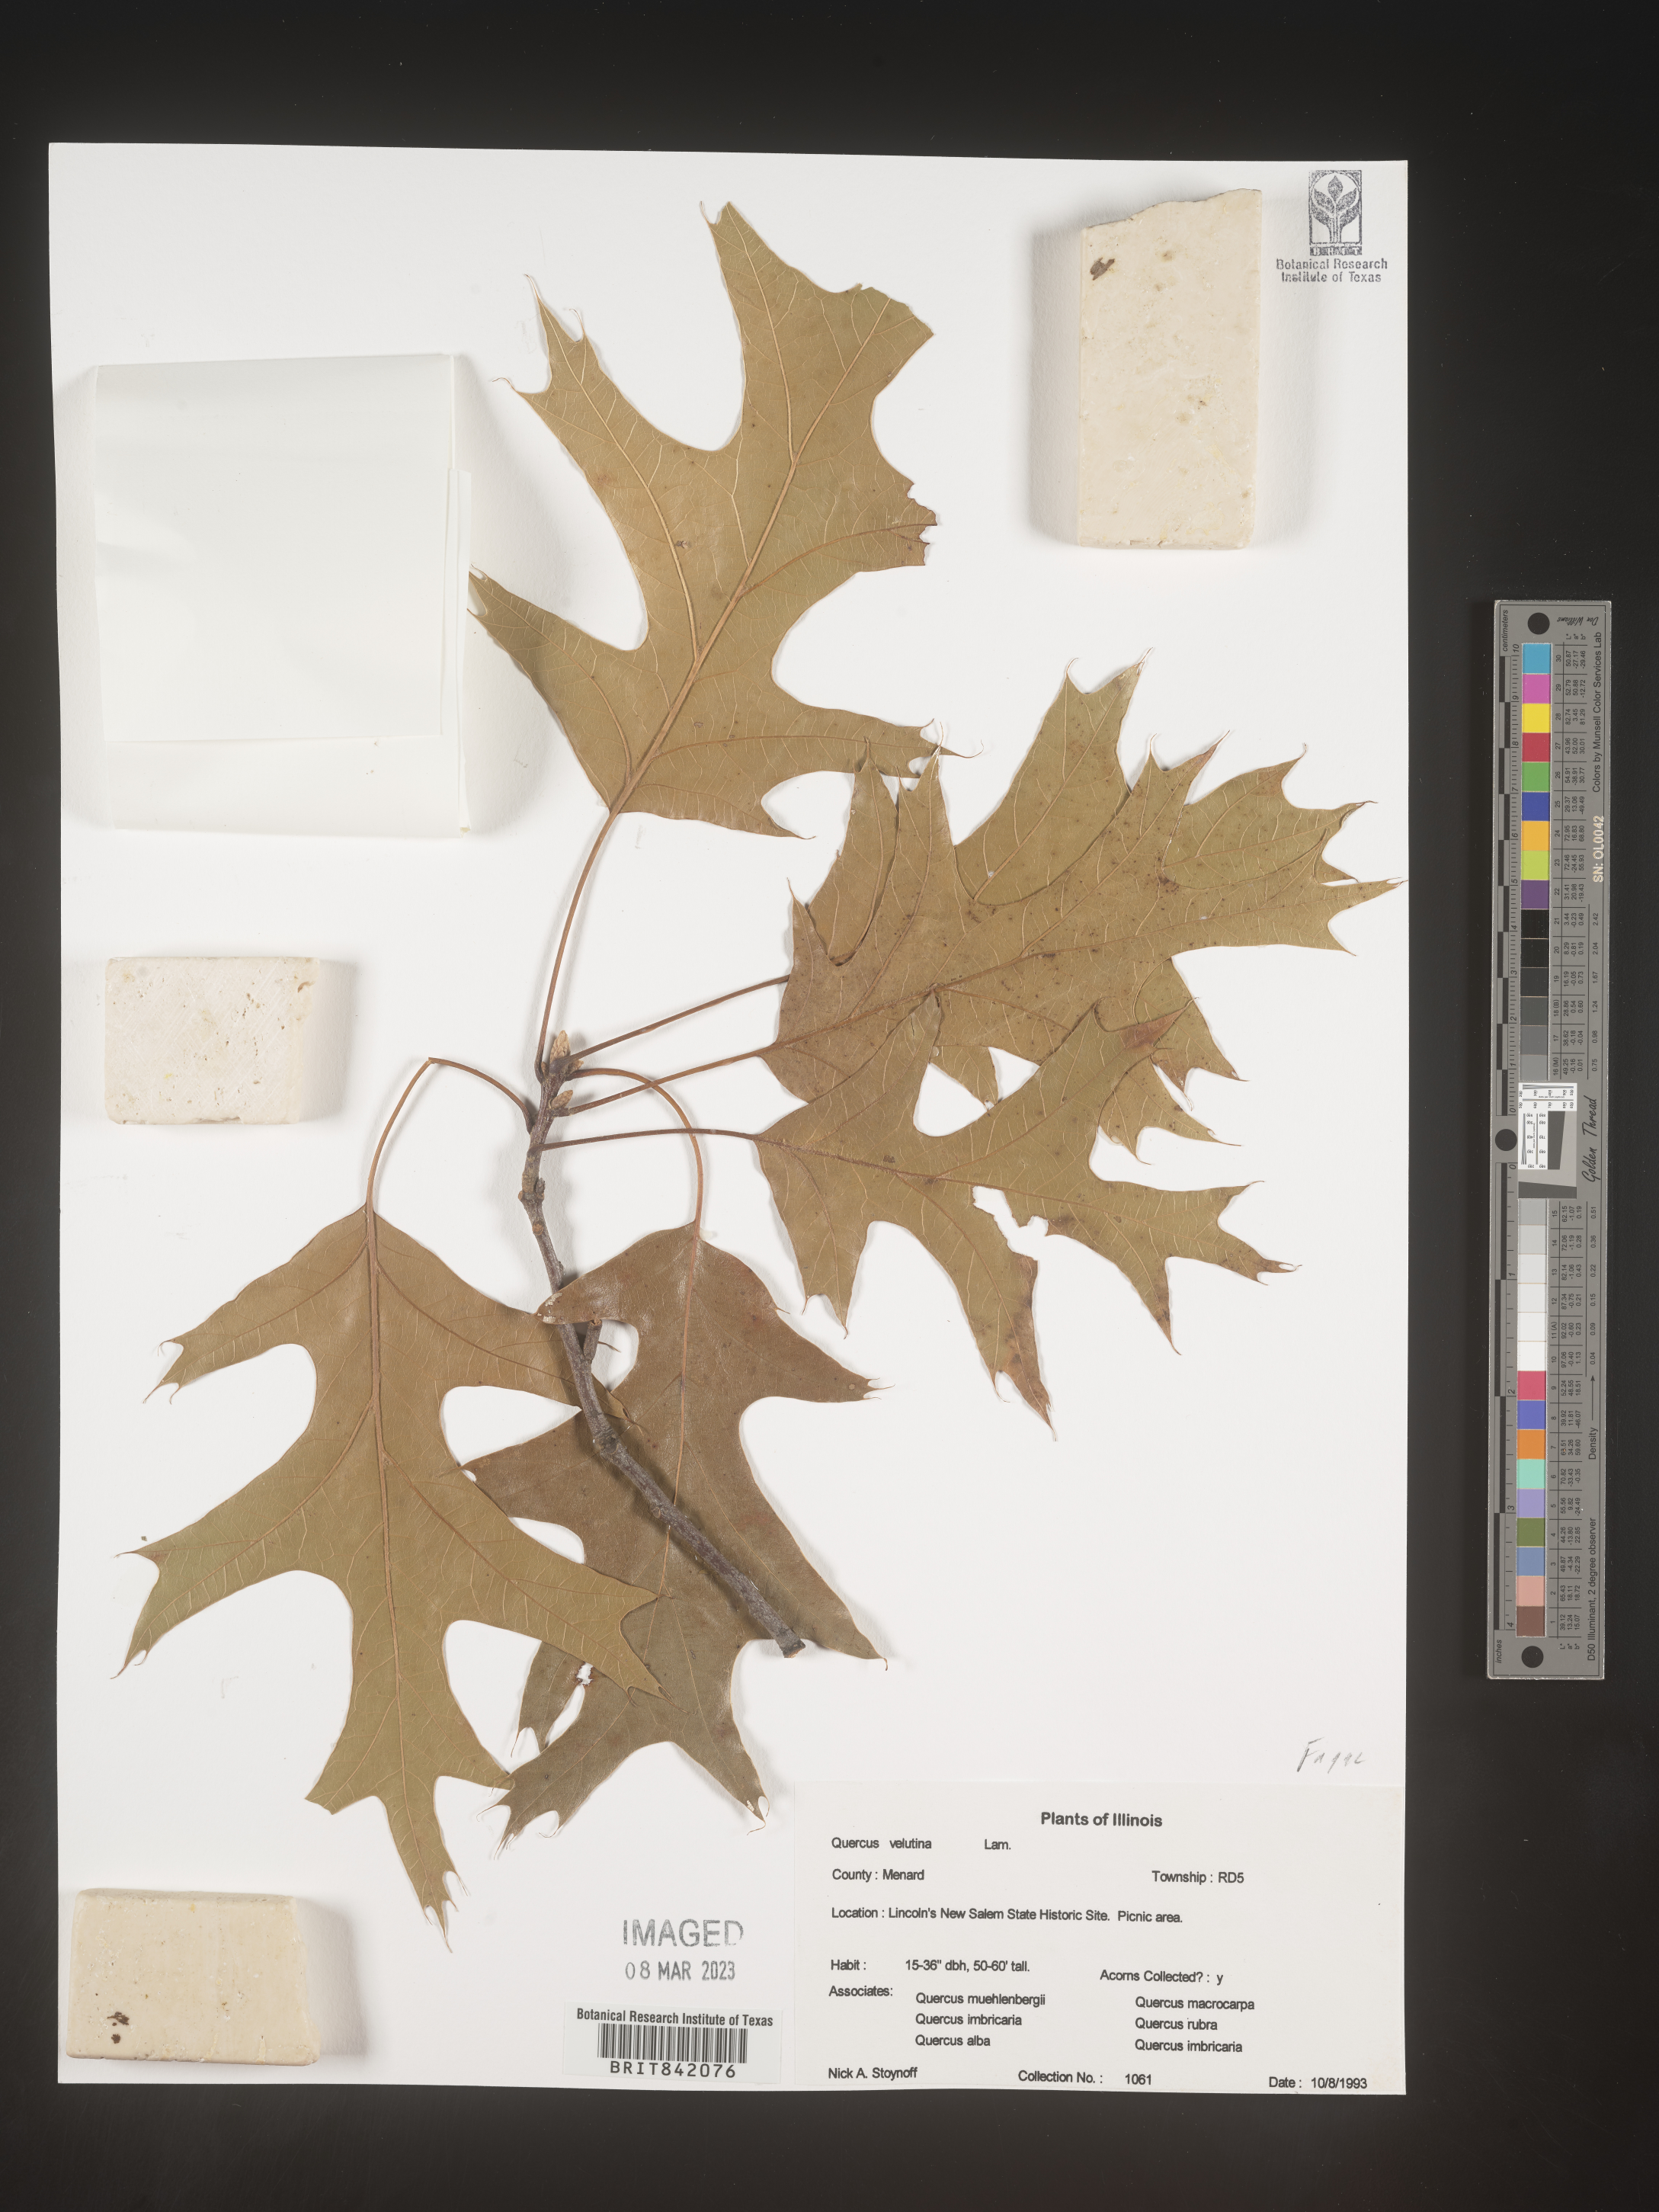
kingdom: Plantae
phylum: Tracheophyta
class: Magnoliopsida
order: Fagales
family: Fagaceae
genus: Quercus
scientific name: Quercus velutina
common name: Black oak
